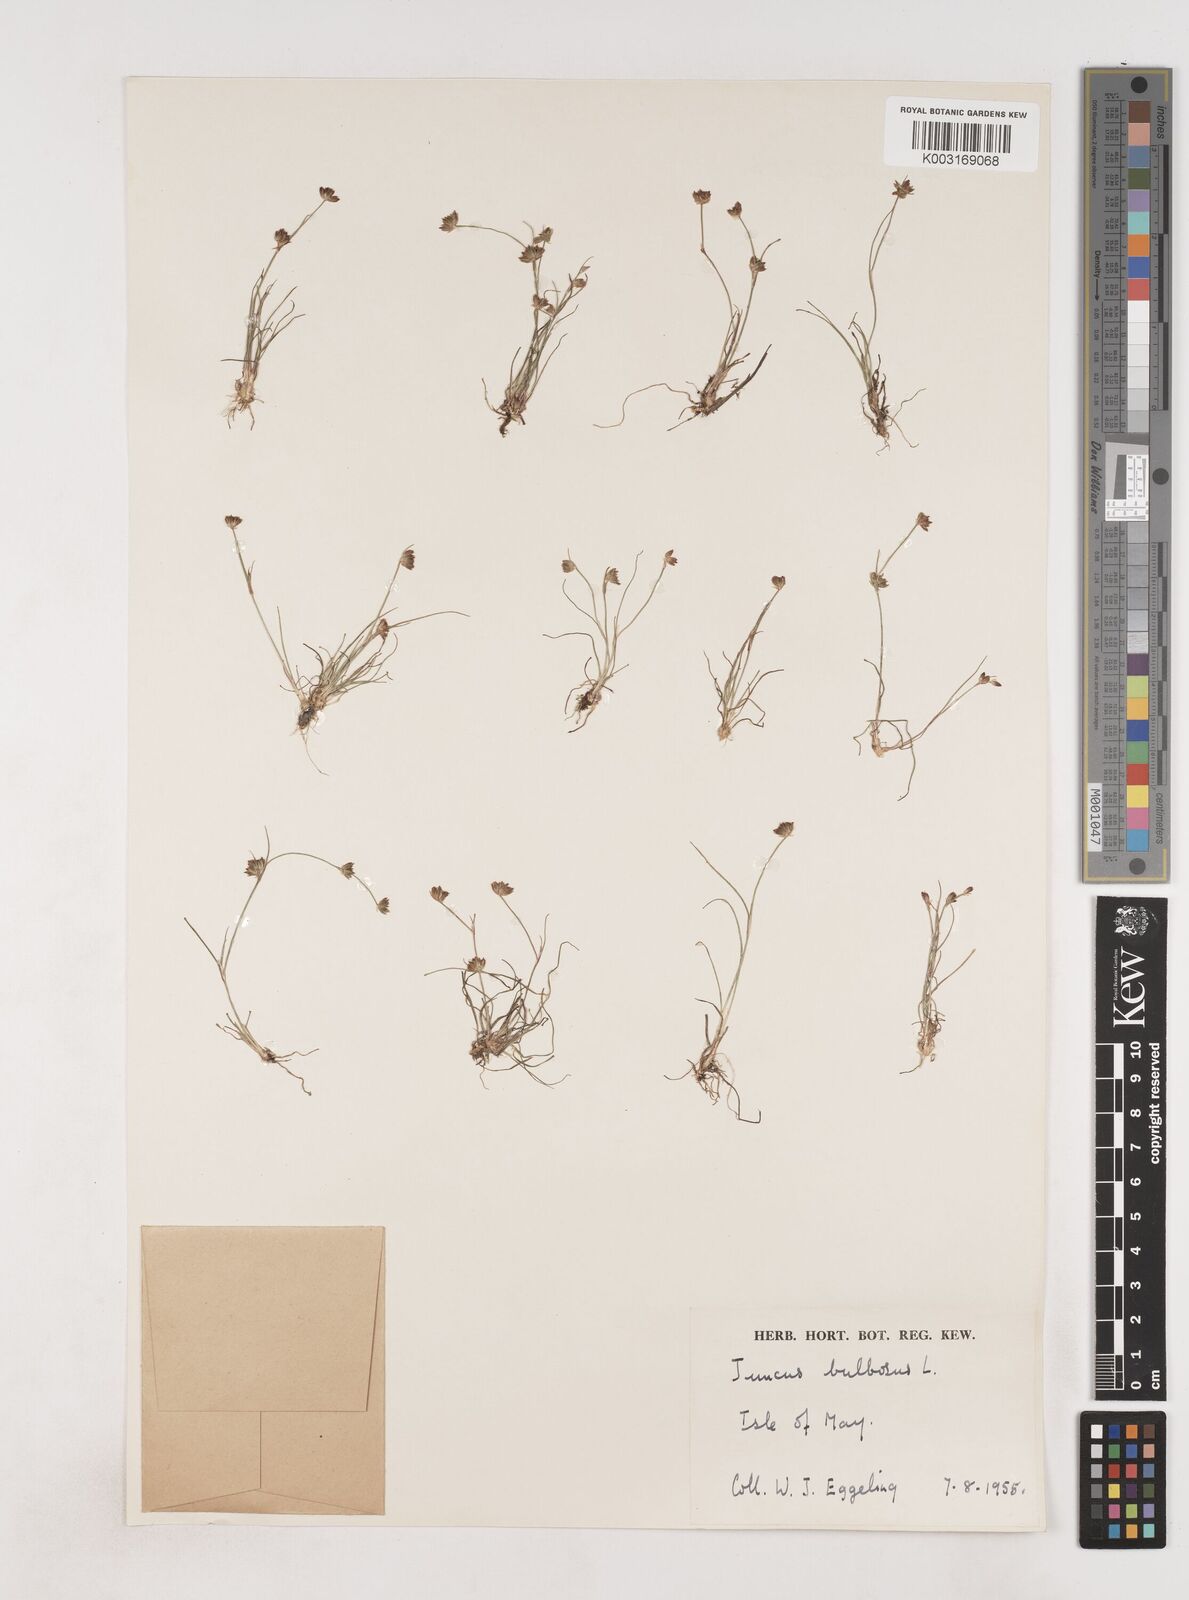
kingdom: Plantae
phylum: Tracheophyta
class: Liliopsida
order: Poales
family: Juncaceae
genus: Juncus
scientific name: Juncus bulbosus
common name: Bulbous rush
